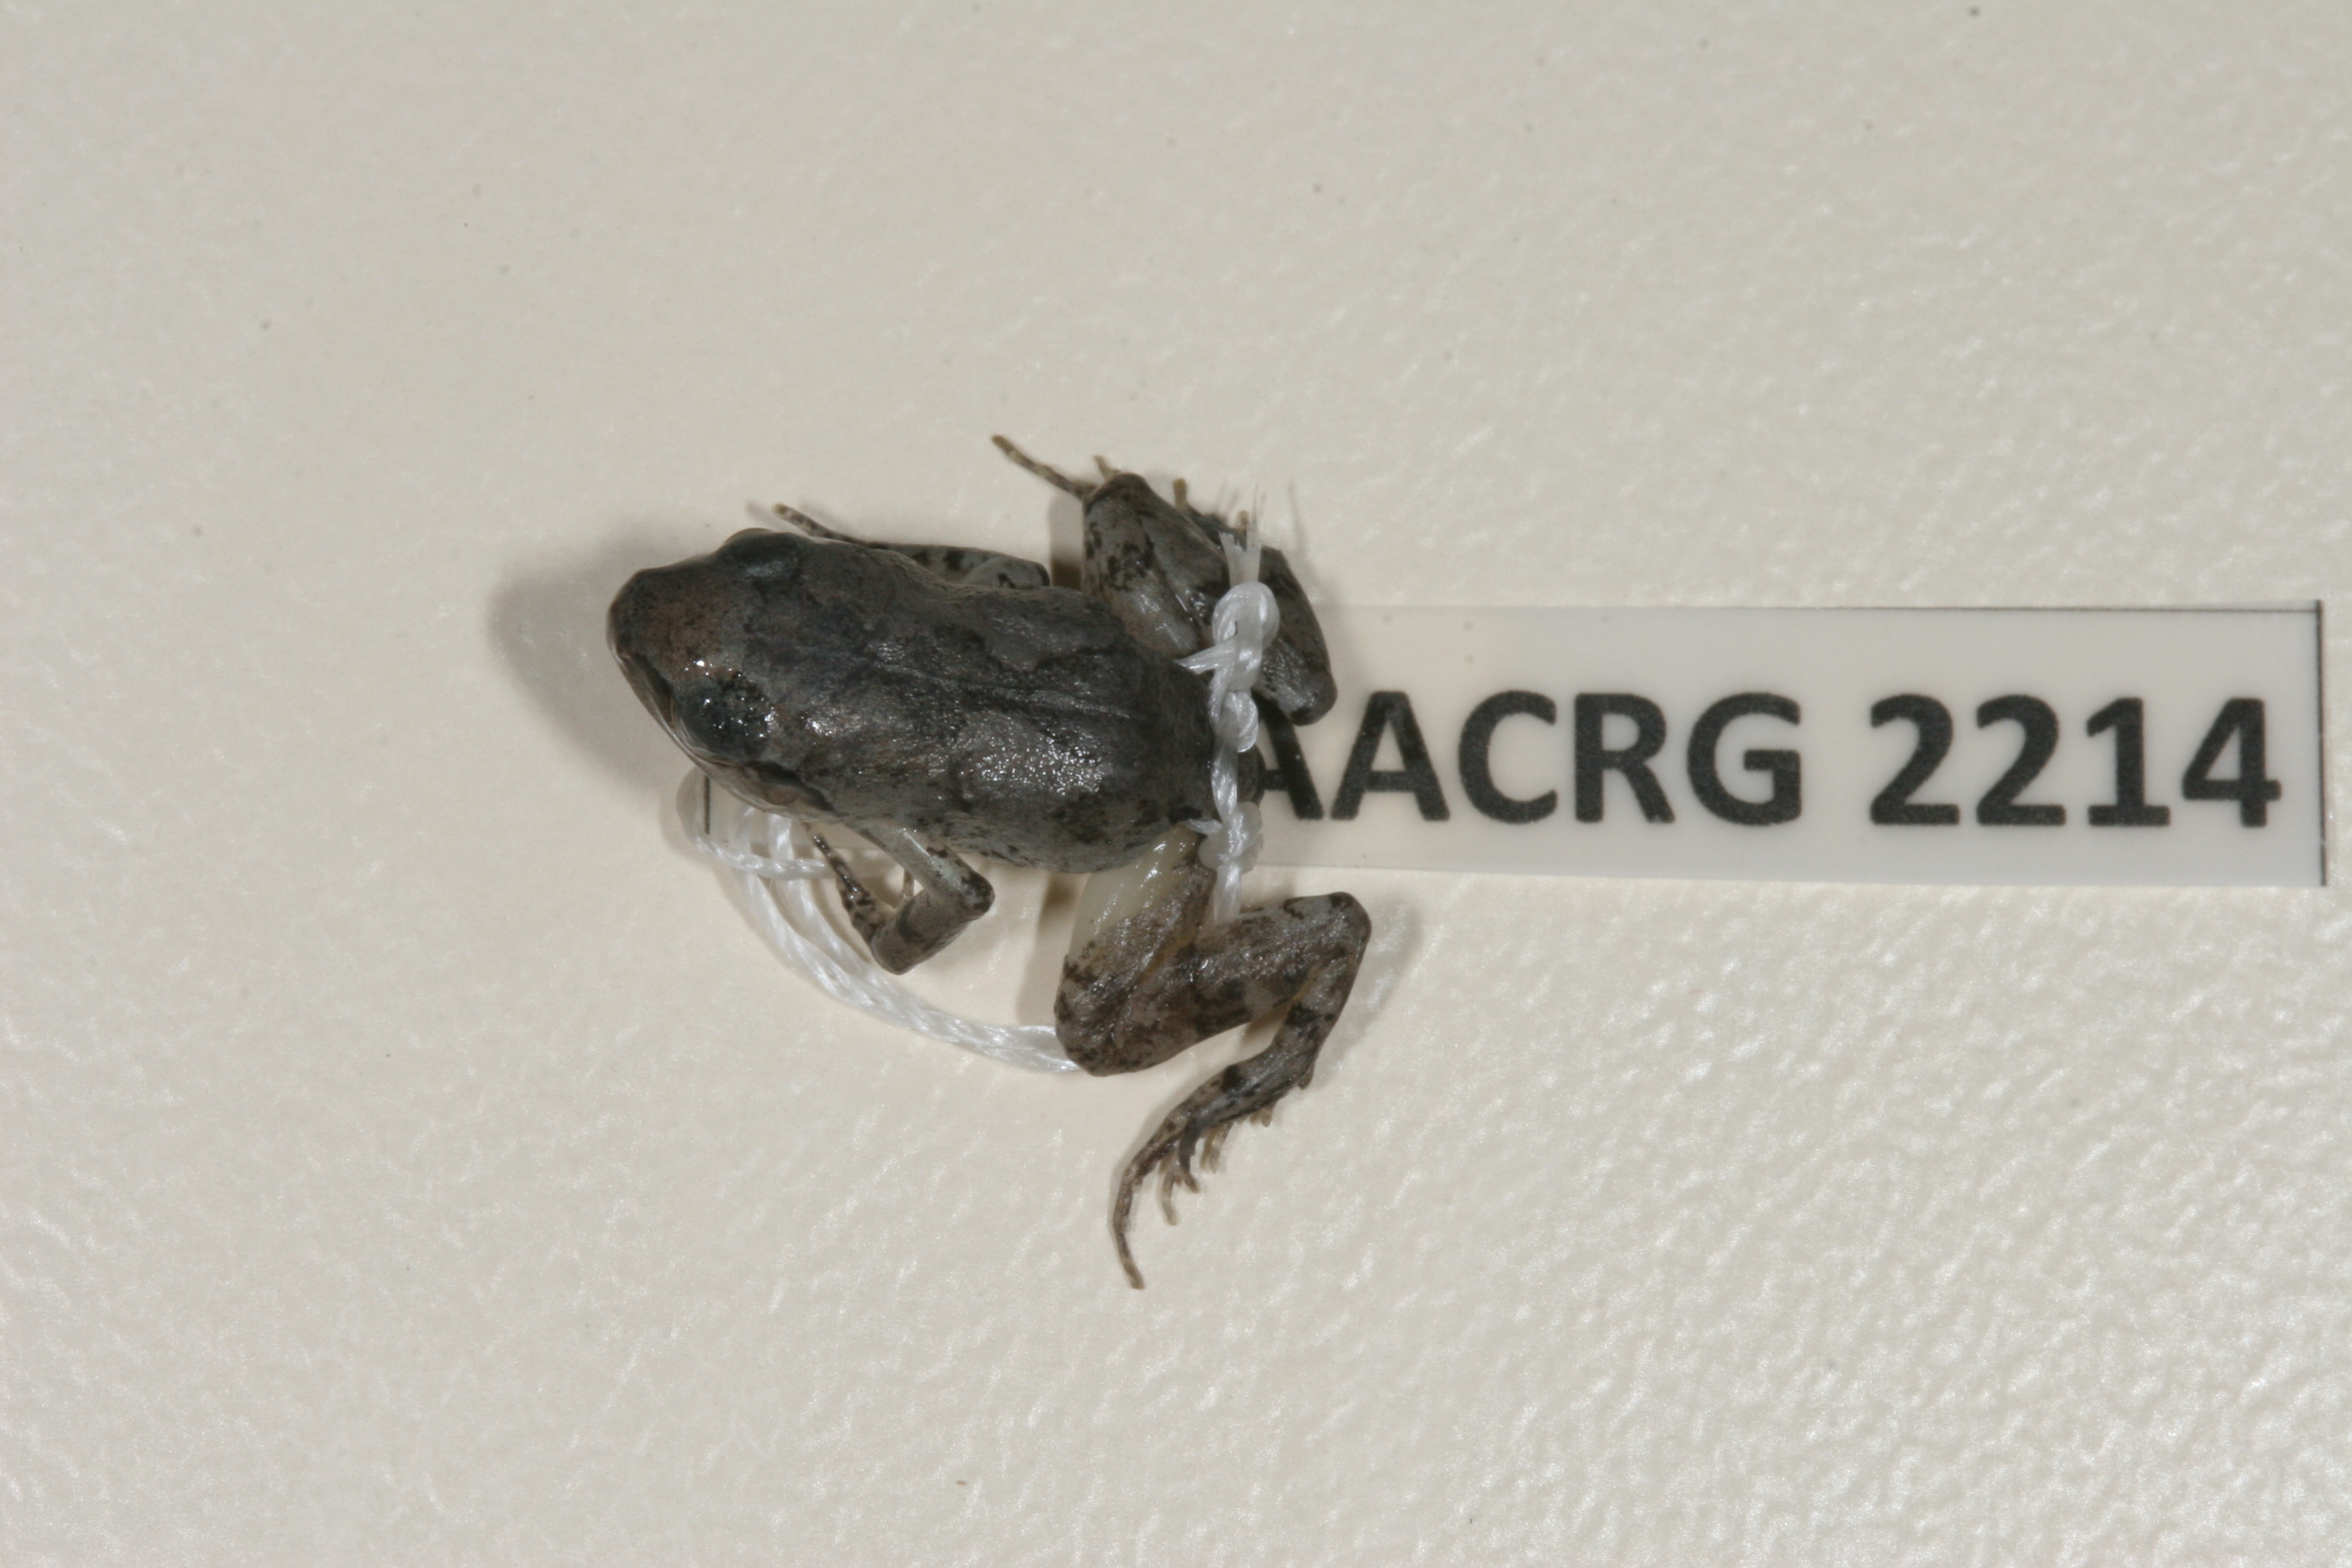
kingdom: Animalia
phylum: Chordata
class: Amphibia
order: Anura
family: Arthroleptidae
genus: Arthroleptis
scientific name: Arthroleptis wahlbergii
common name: Bush squeaker
